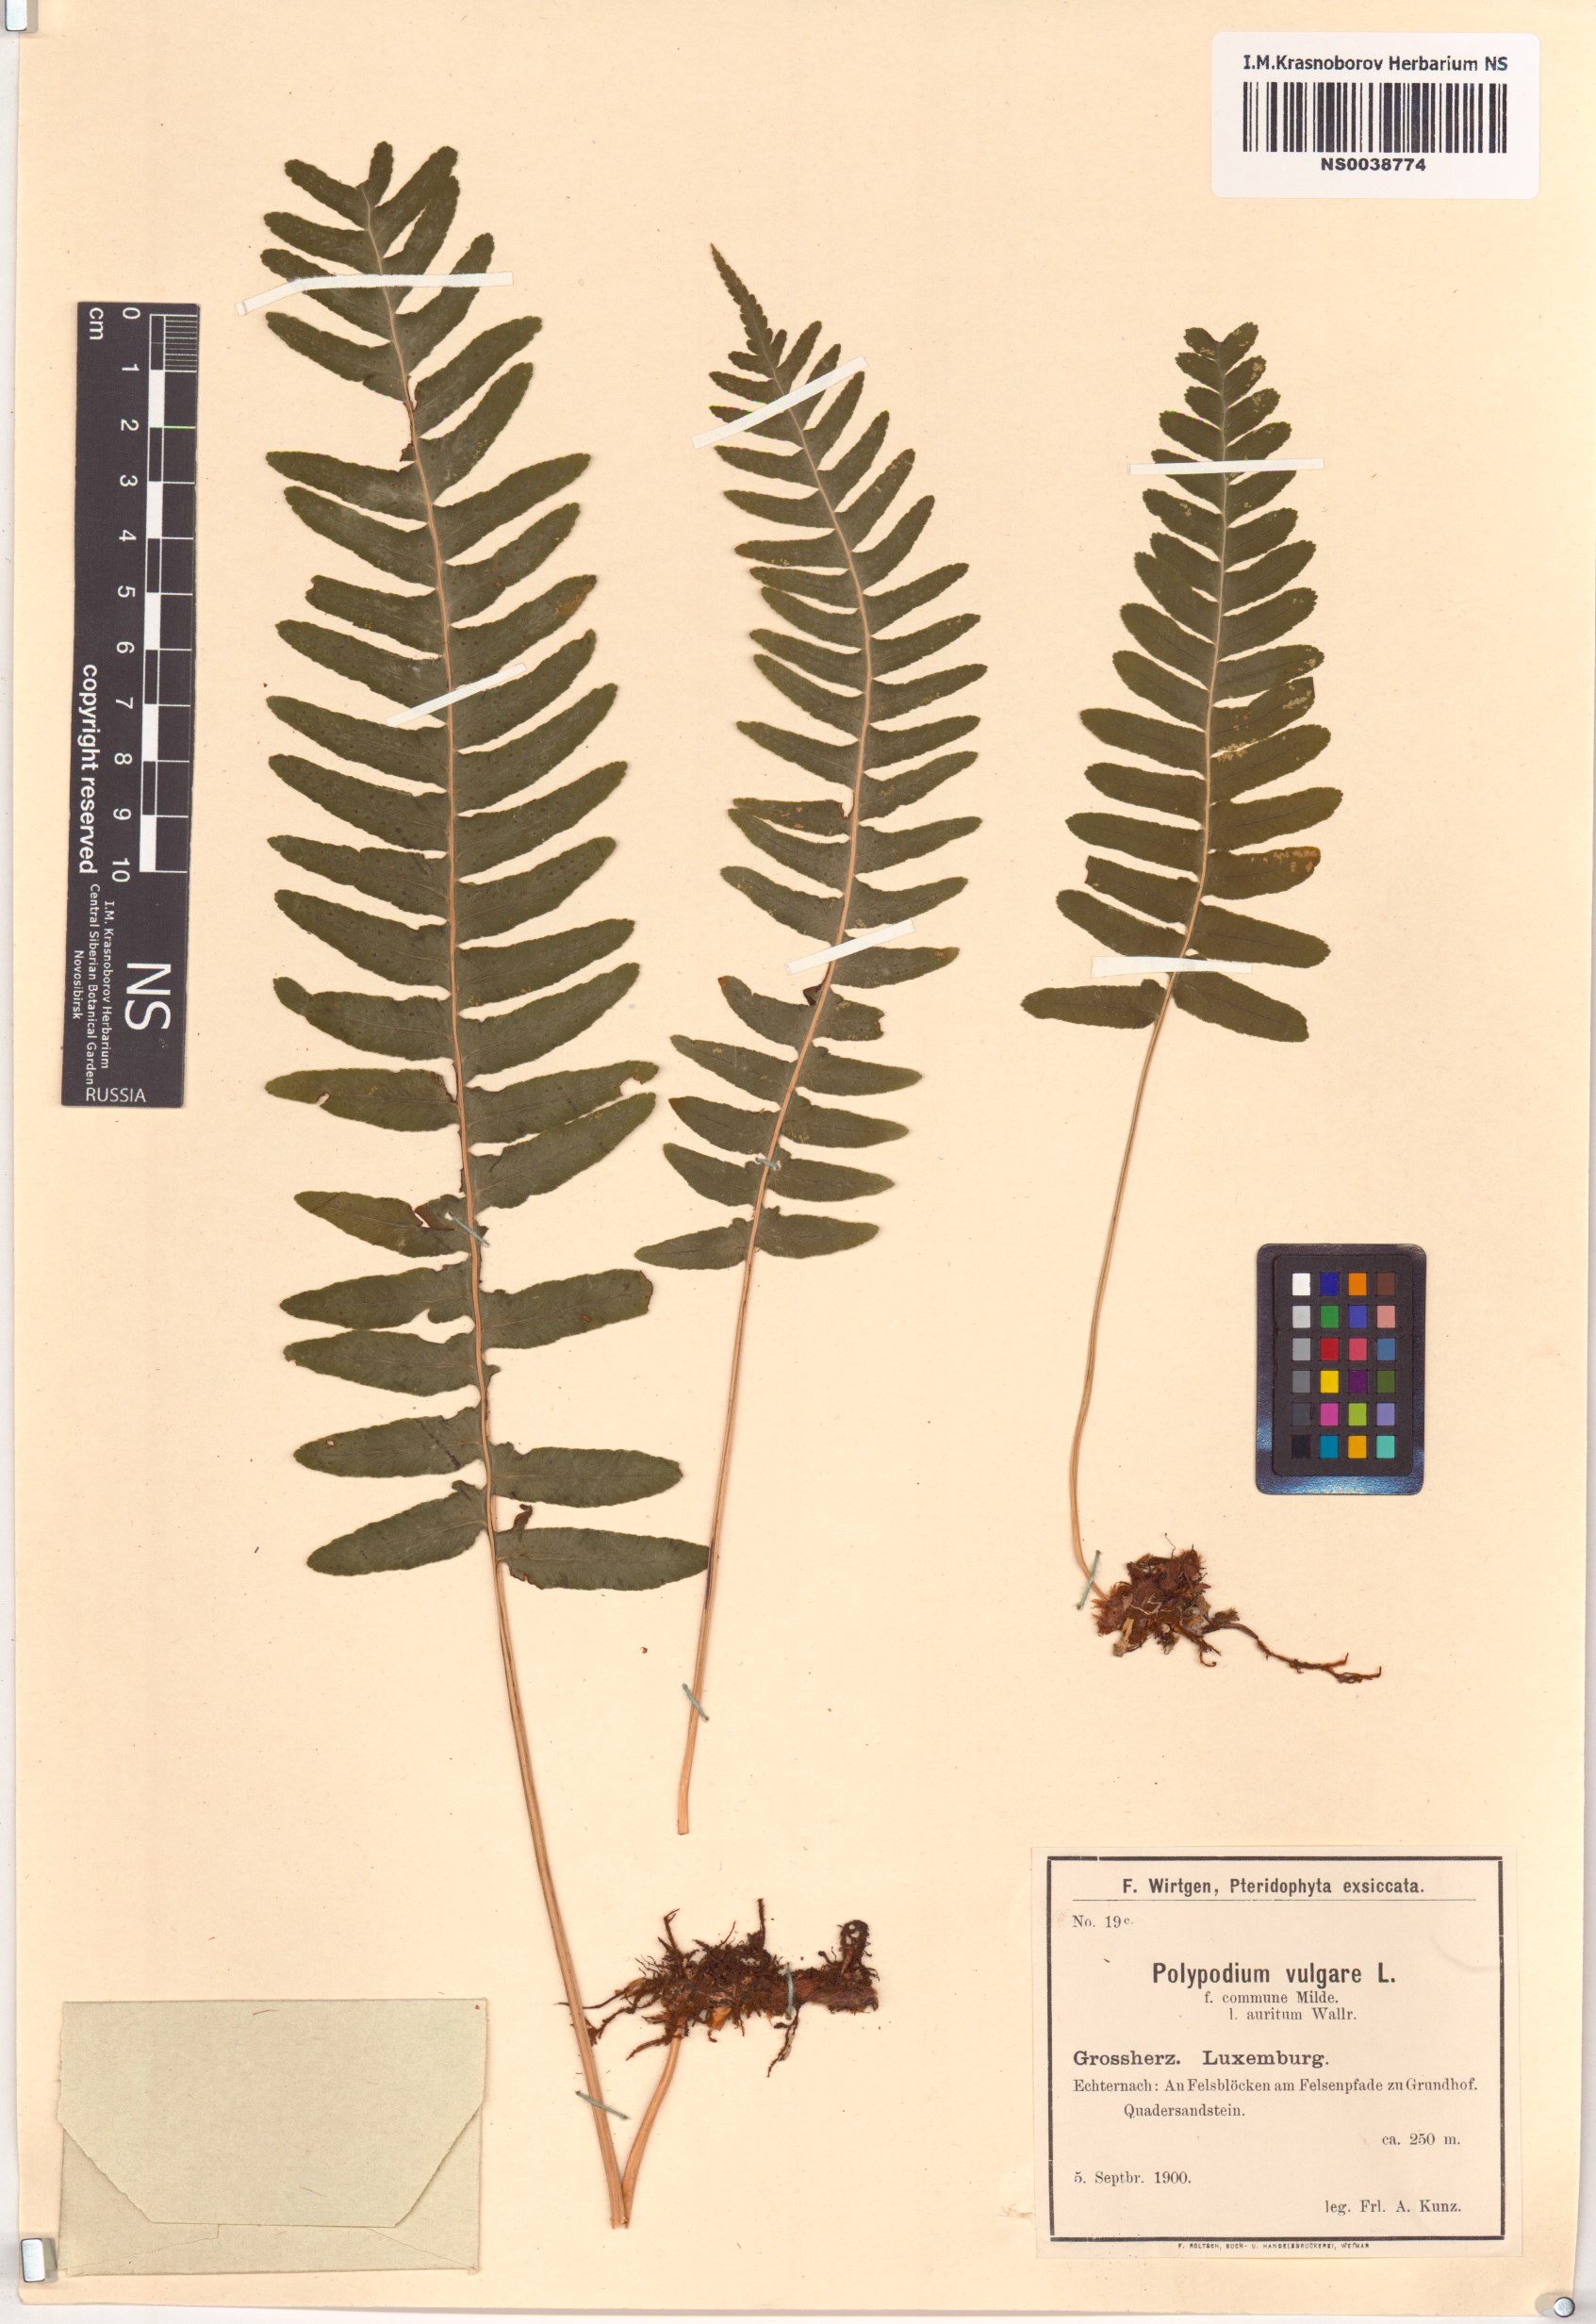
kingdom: Plantae
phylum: Tracheophyta
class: Polypodiopsida
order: Polypodiales
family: Polypodiaceae
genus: Polypodium
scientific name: Polypodium glycyrrhiza
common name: Licorice fern
